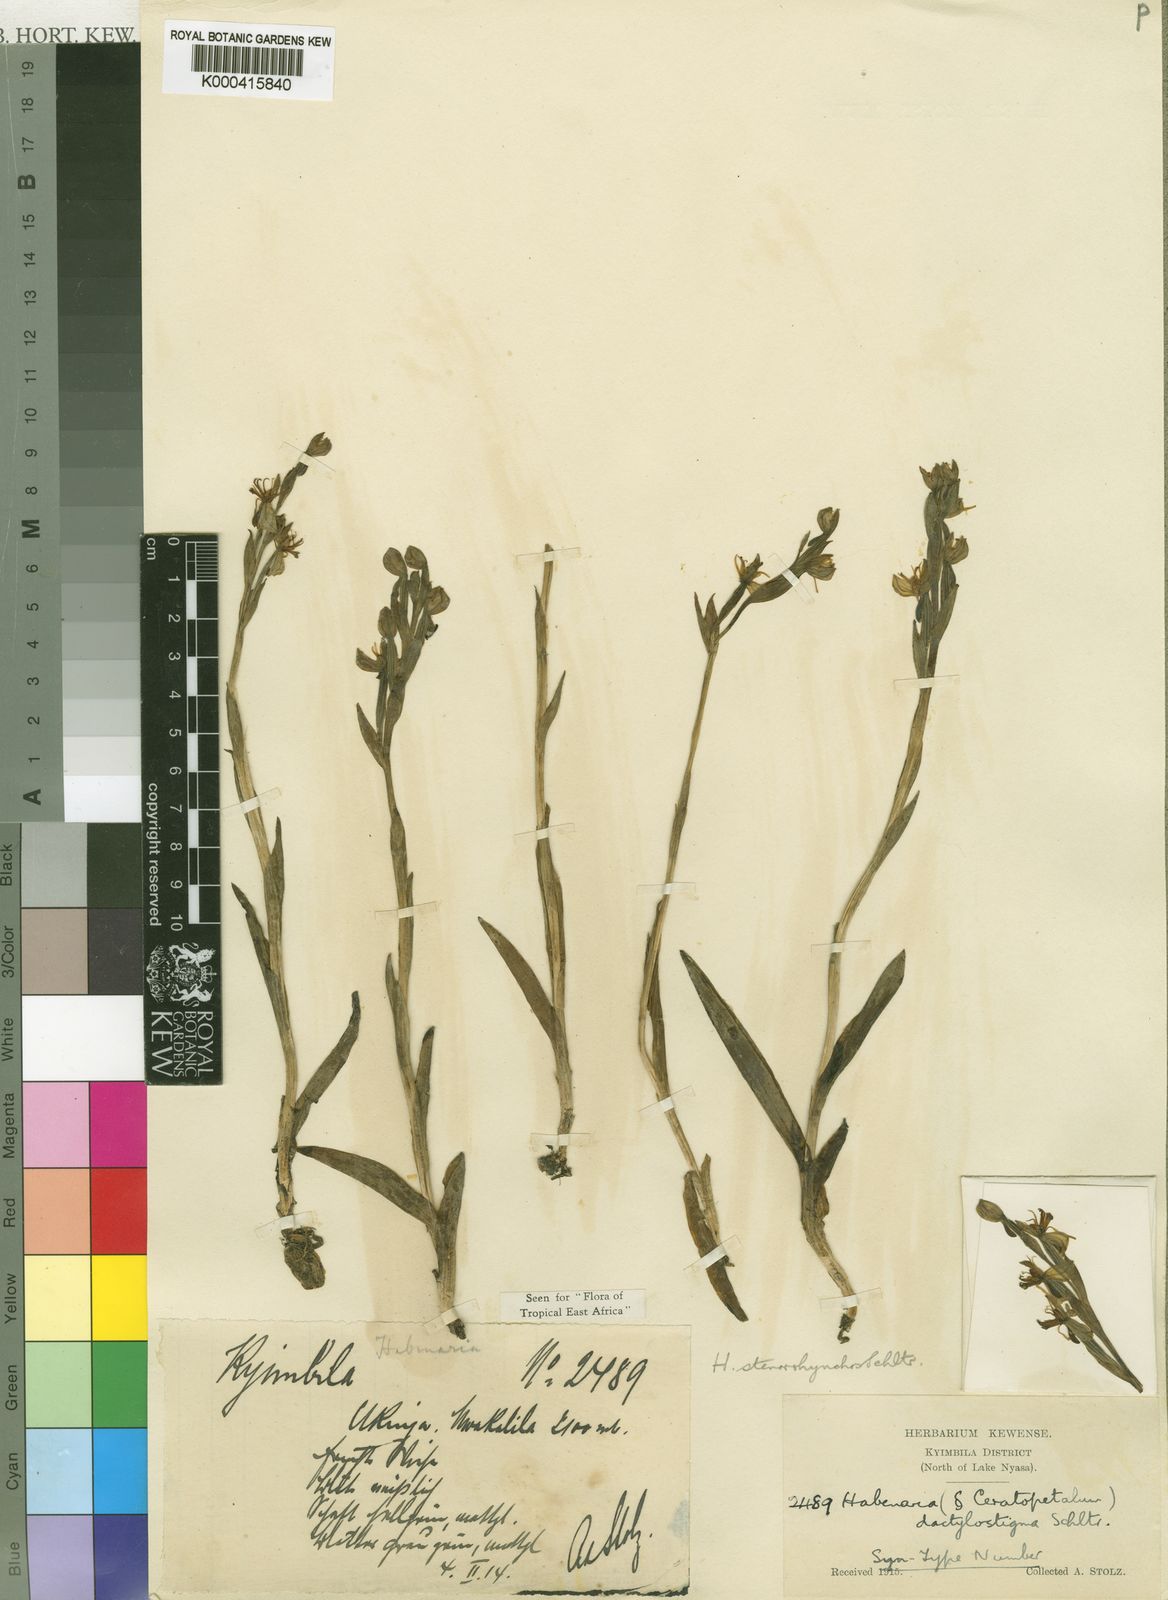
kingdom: Plantae
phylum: Tracheophyta
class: Liliopsida
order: Asparagales
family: Orchidaceae
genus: Habenaria
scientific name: Habenaria stenorhynchos
